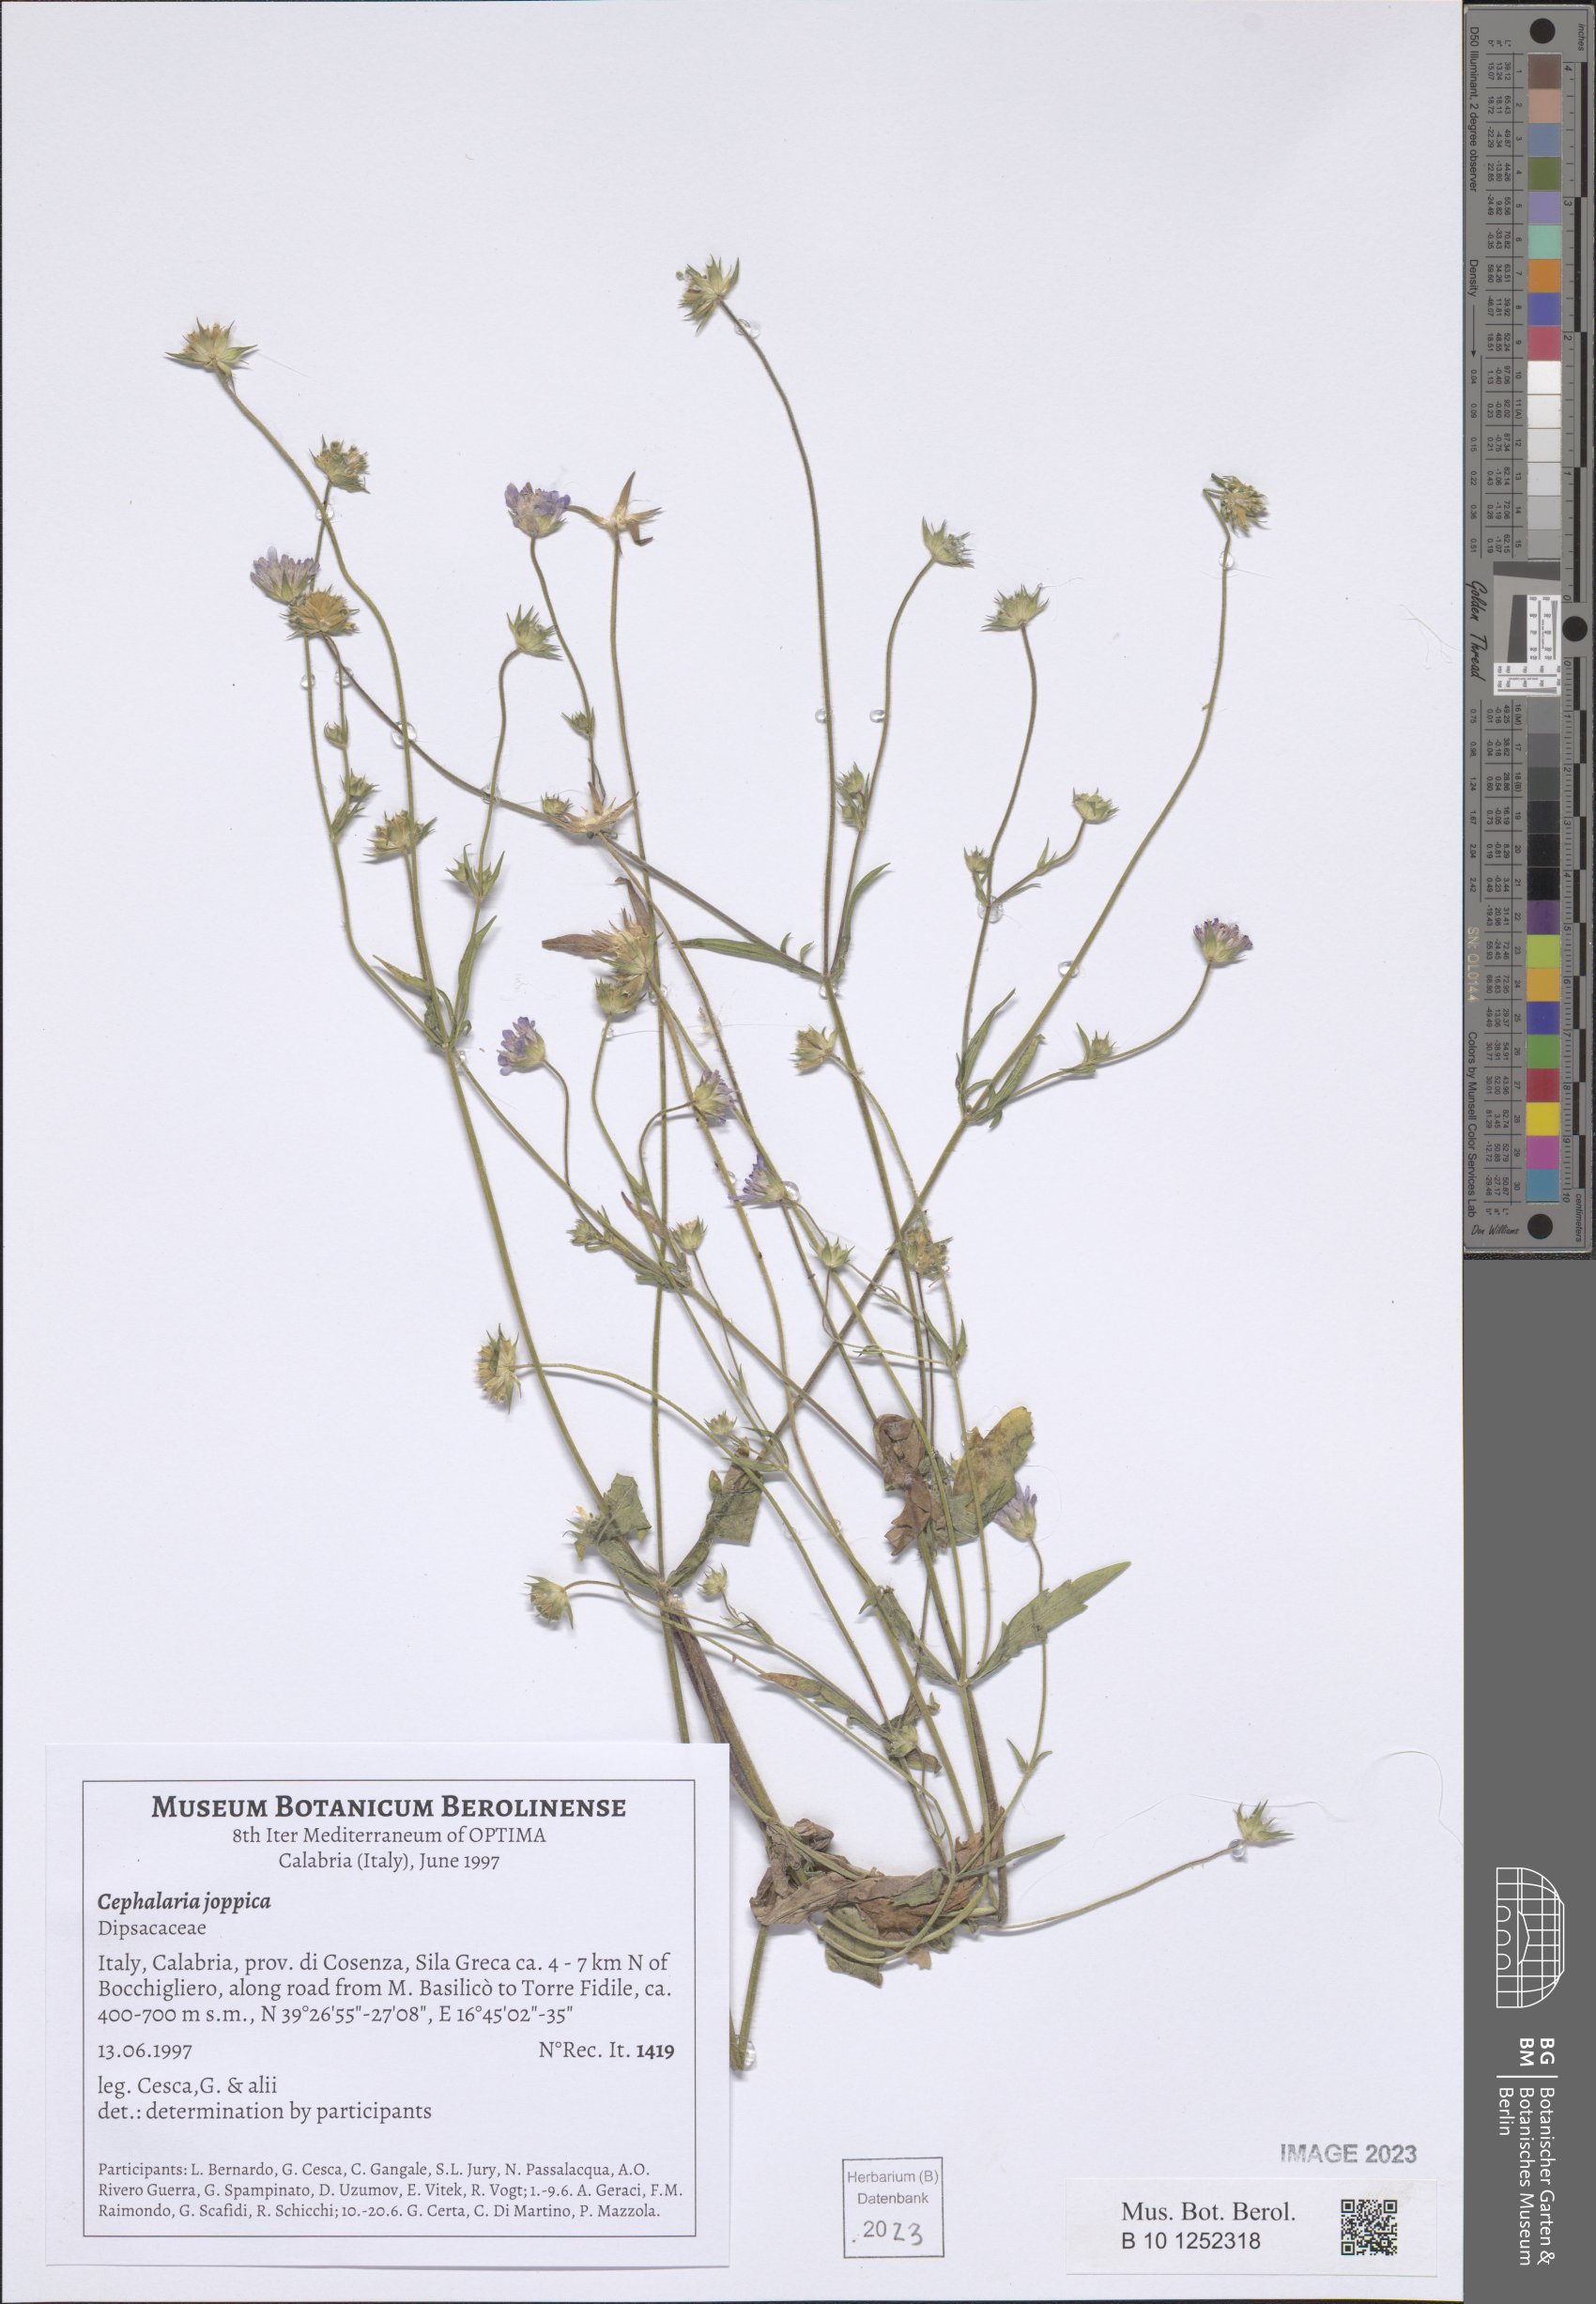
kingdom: Plantae
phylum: Tracheophyta
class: Magnoliopsida
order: Dipsacales
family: Caprifoliaceae
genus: Cephalaria
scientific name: Cephalaria joppensis
